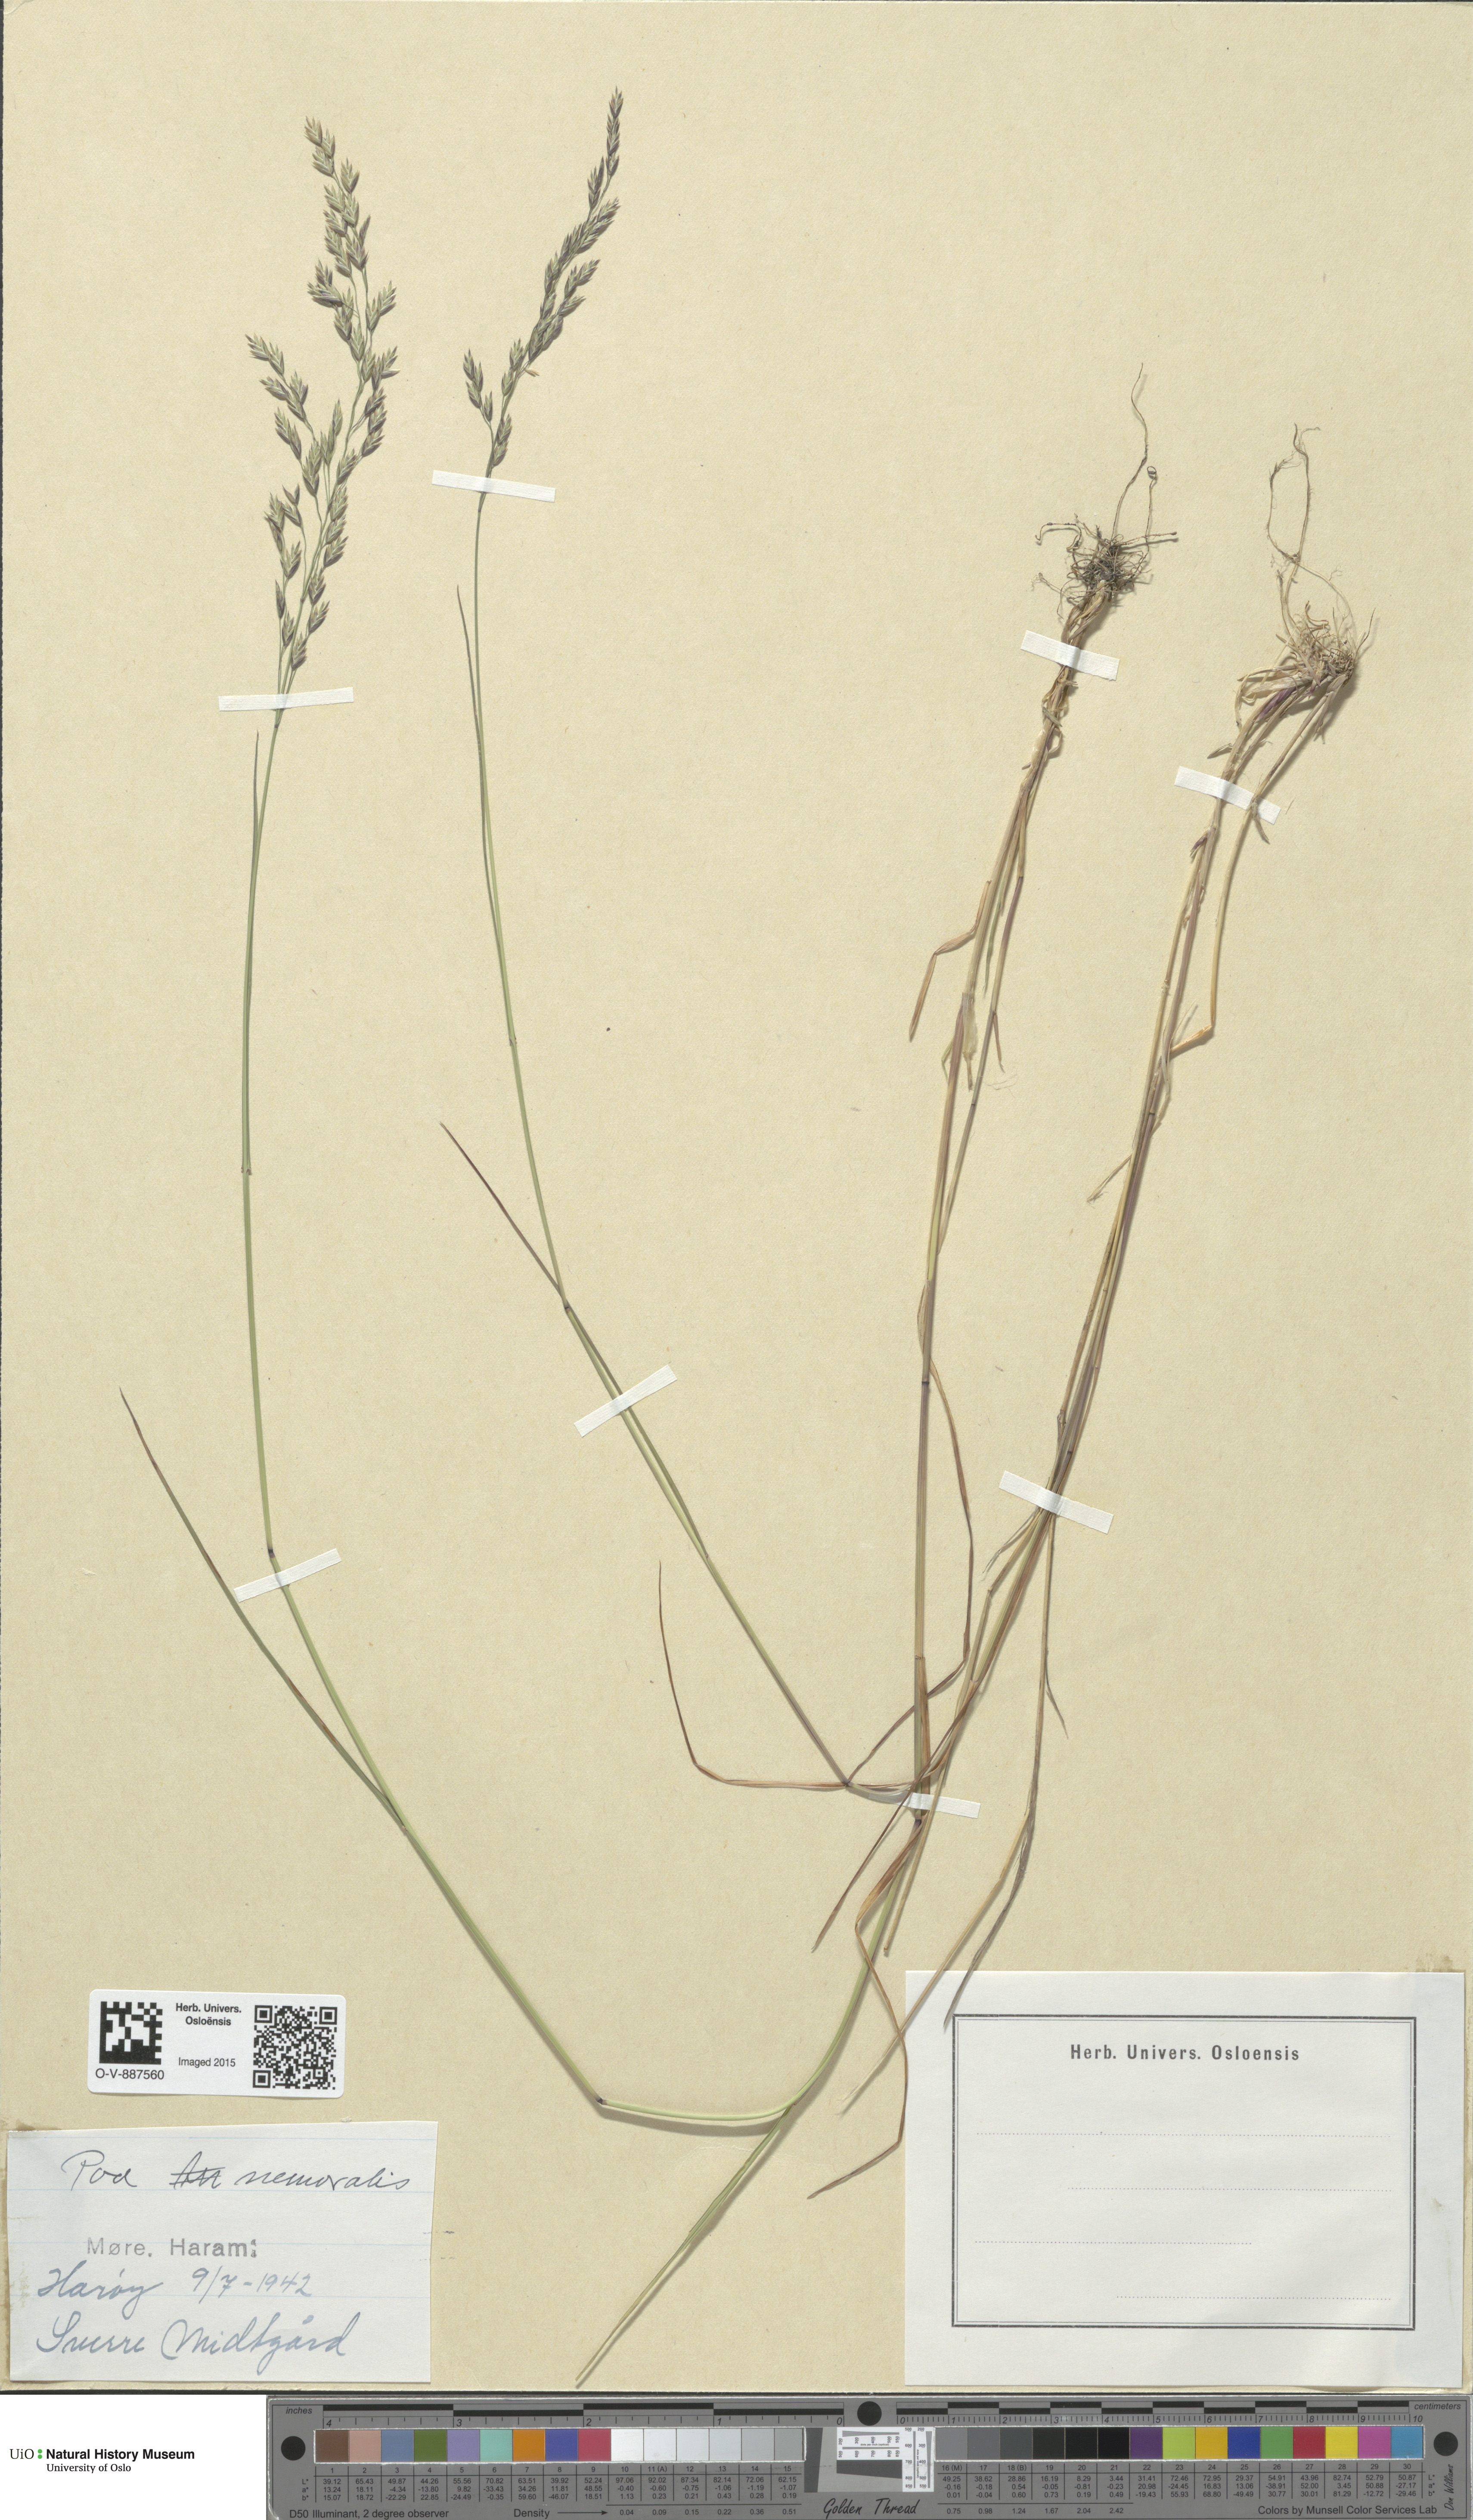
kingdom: Plantae
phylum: Tracheophyta
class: Liliopsida
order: Poales
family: Poaceae
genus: Poa
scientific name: Poa nemoralis
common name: Wood bluegrass
